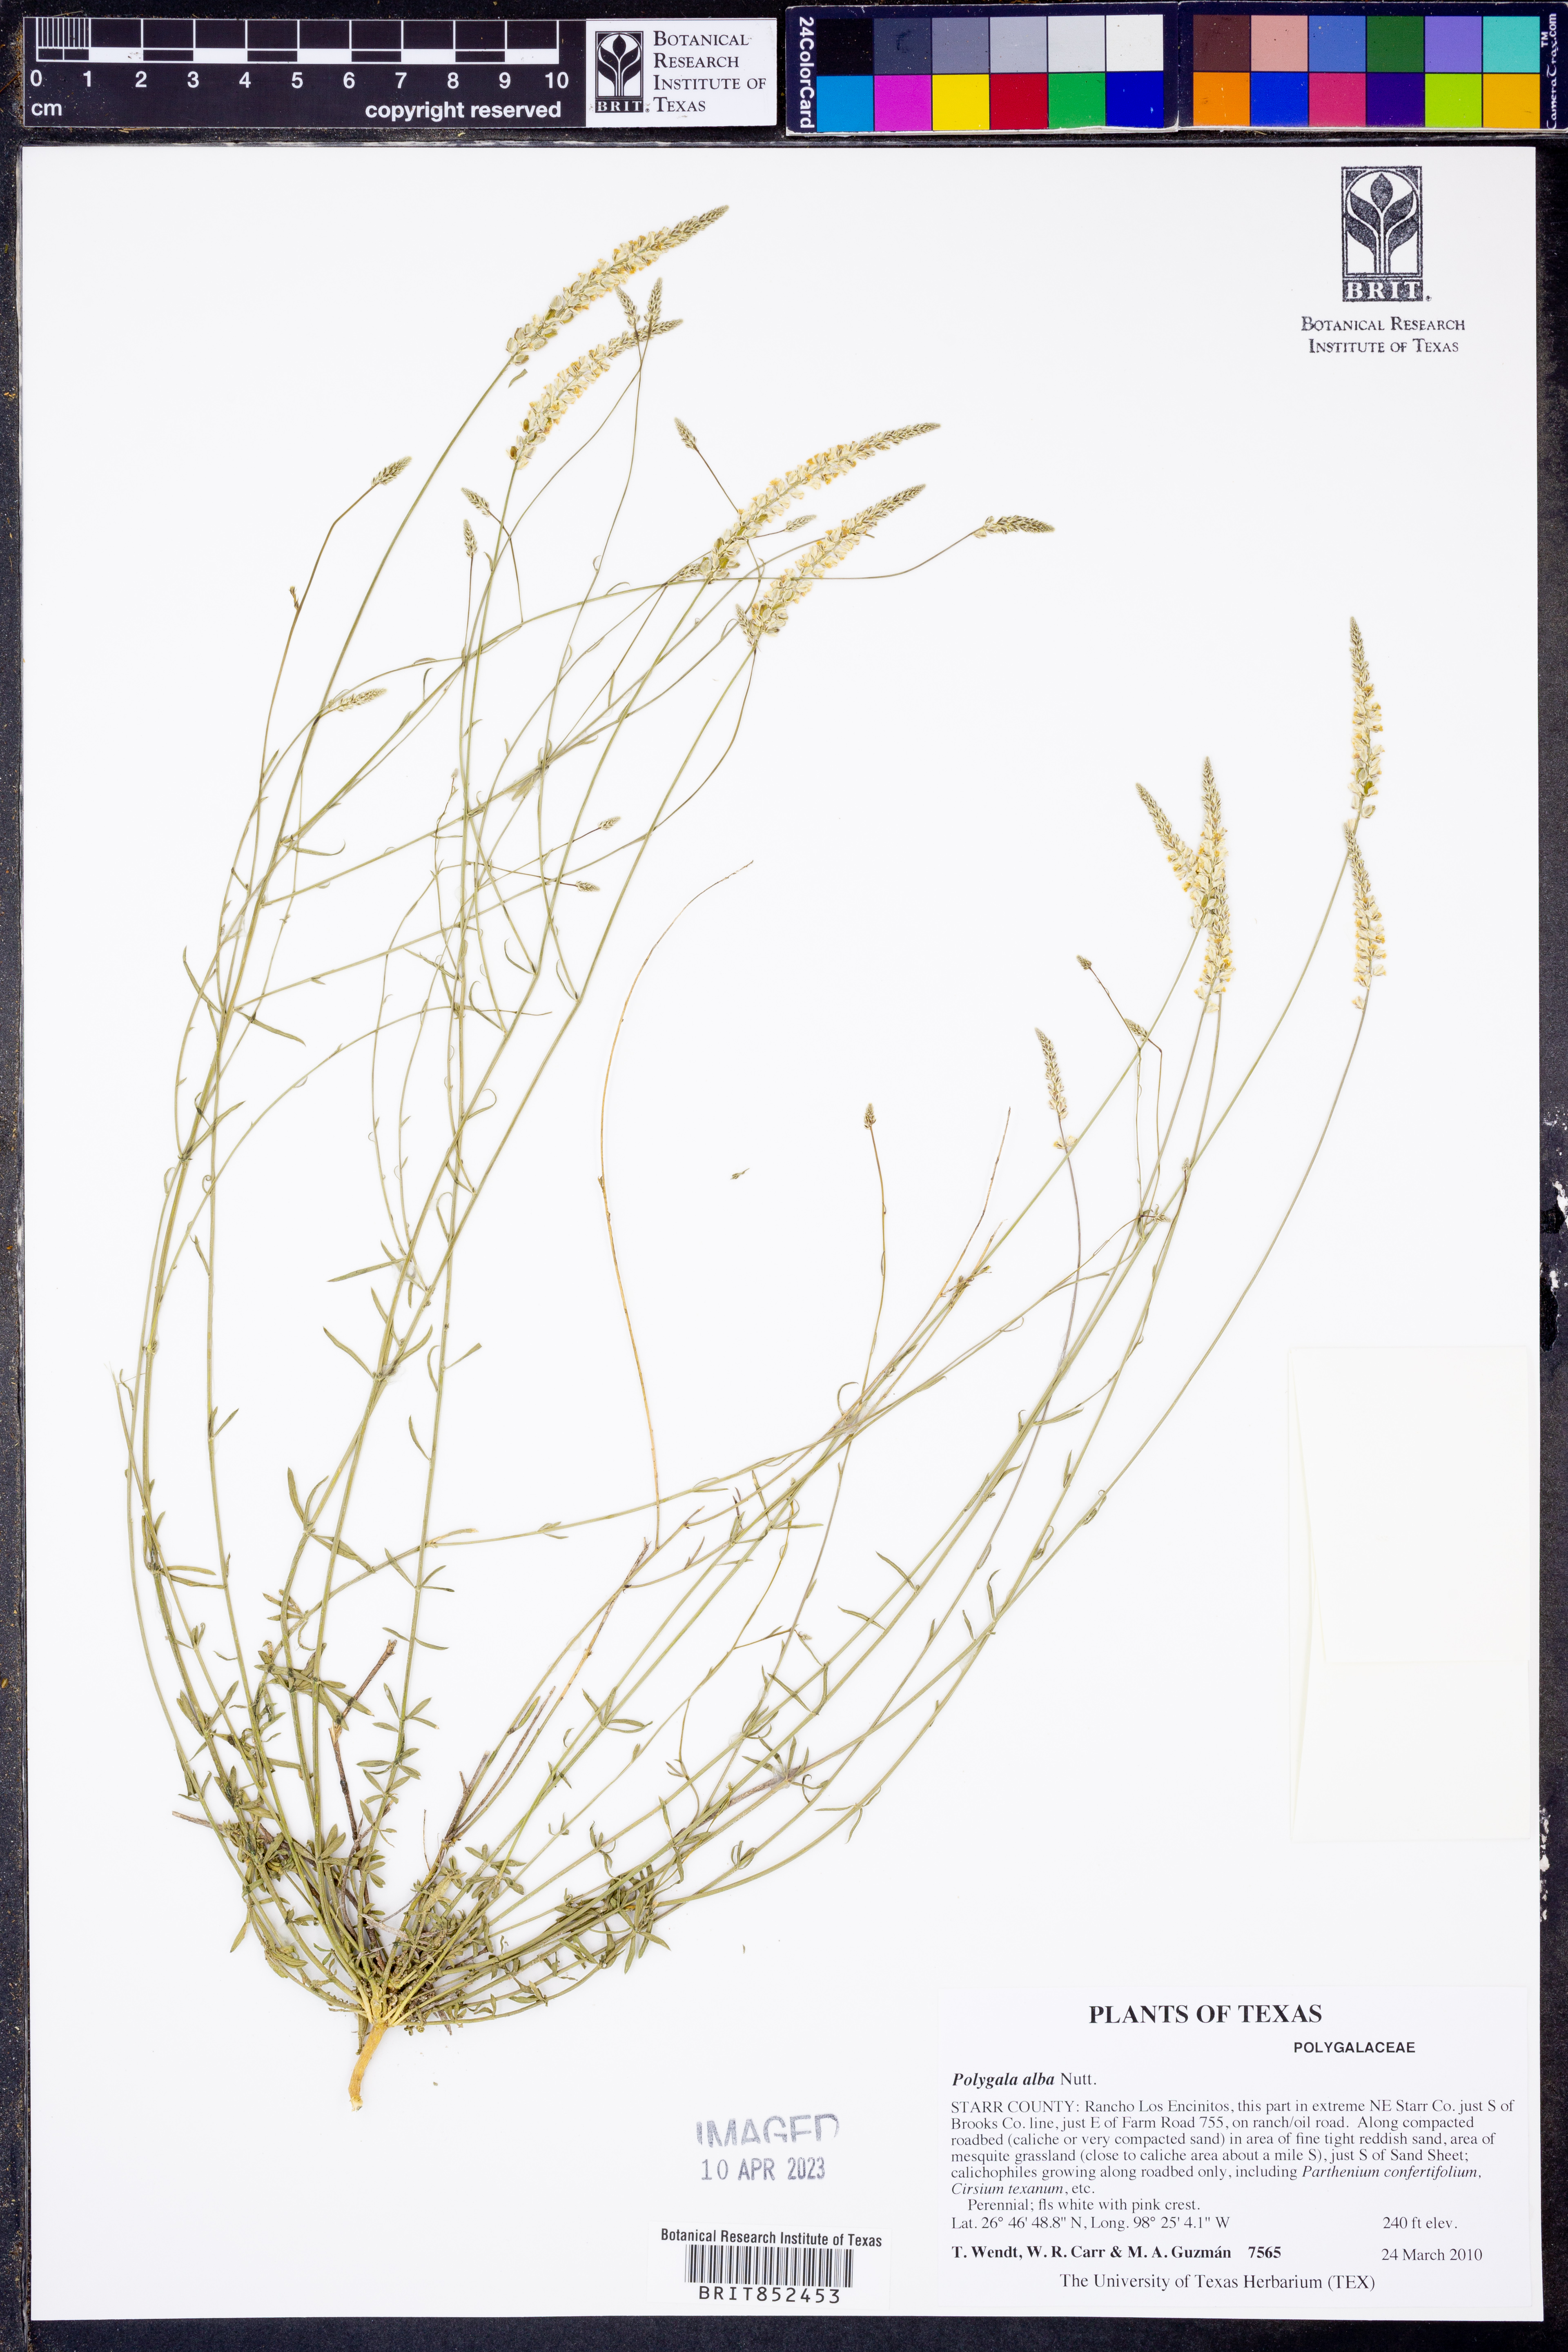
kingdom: Plantae
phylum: Tracheophyta
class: Magnoliopsida
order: Fabales
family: Polygalaceae
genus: Polygala
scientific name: Polygala alba
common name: White milkwort
